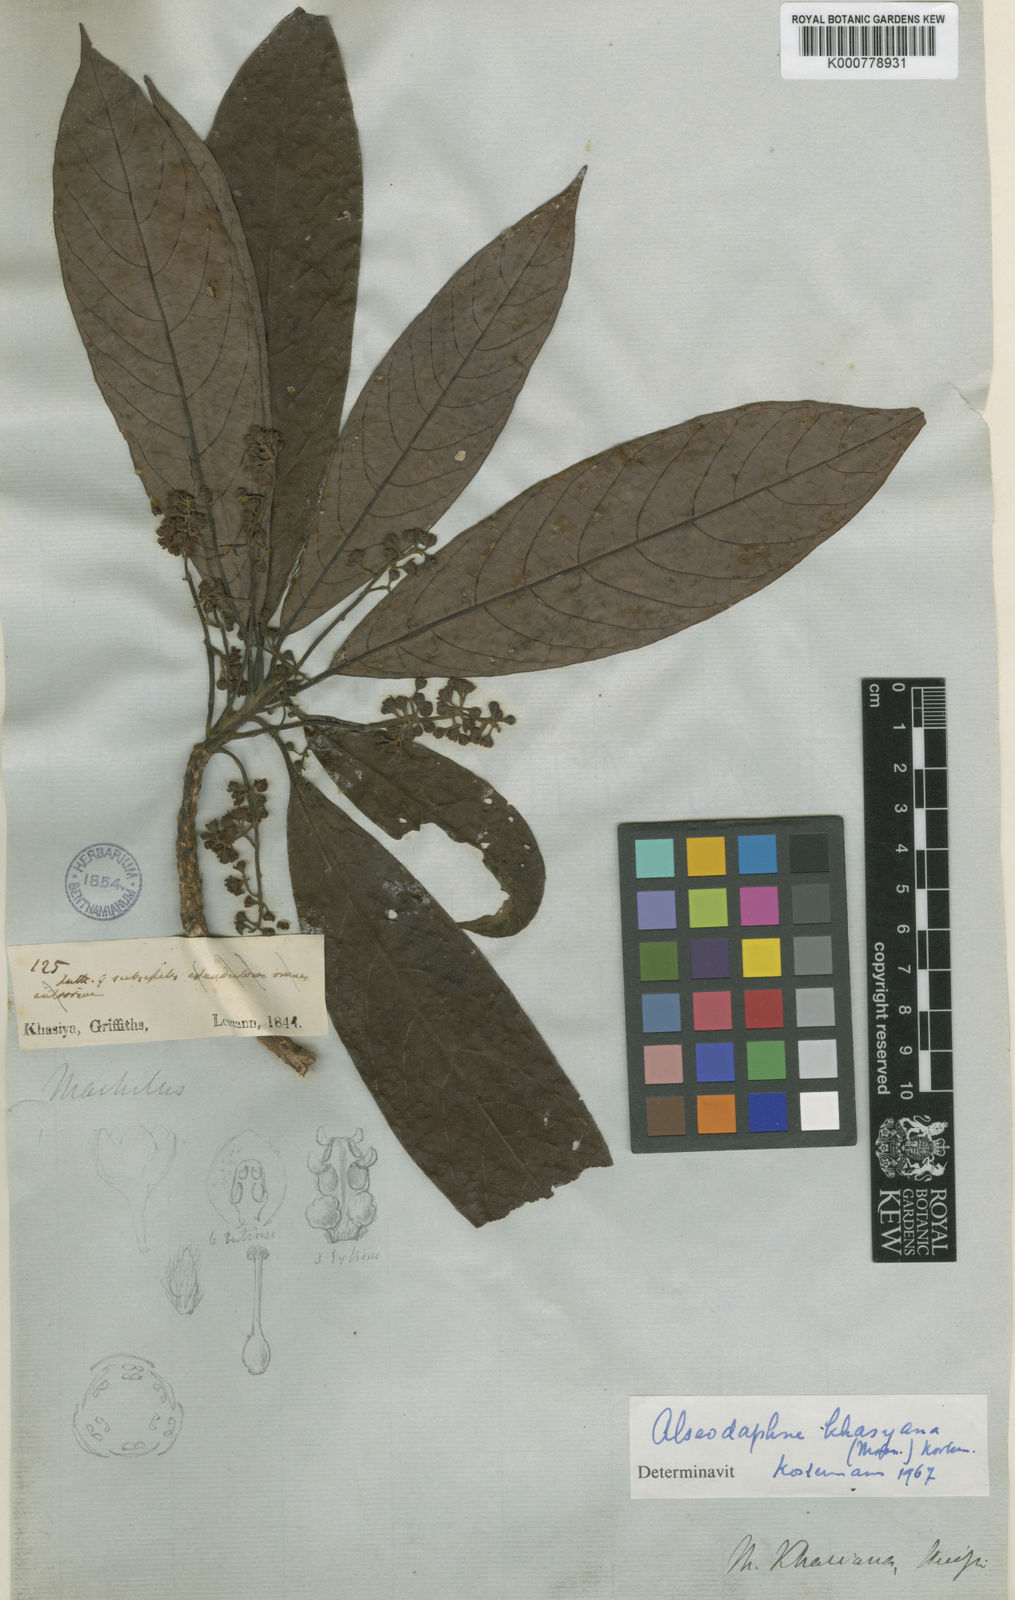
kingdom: Plantae
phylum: Tracheophyta
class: Magnoliopsida
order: Laurales
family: Lauraceae
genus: Alseodaphne
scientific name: Alseodaphne elongata
